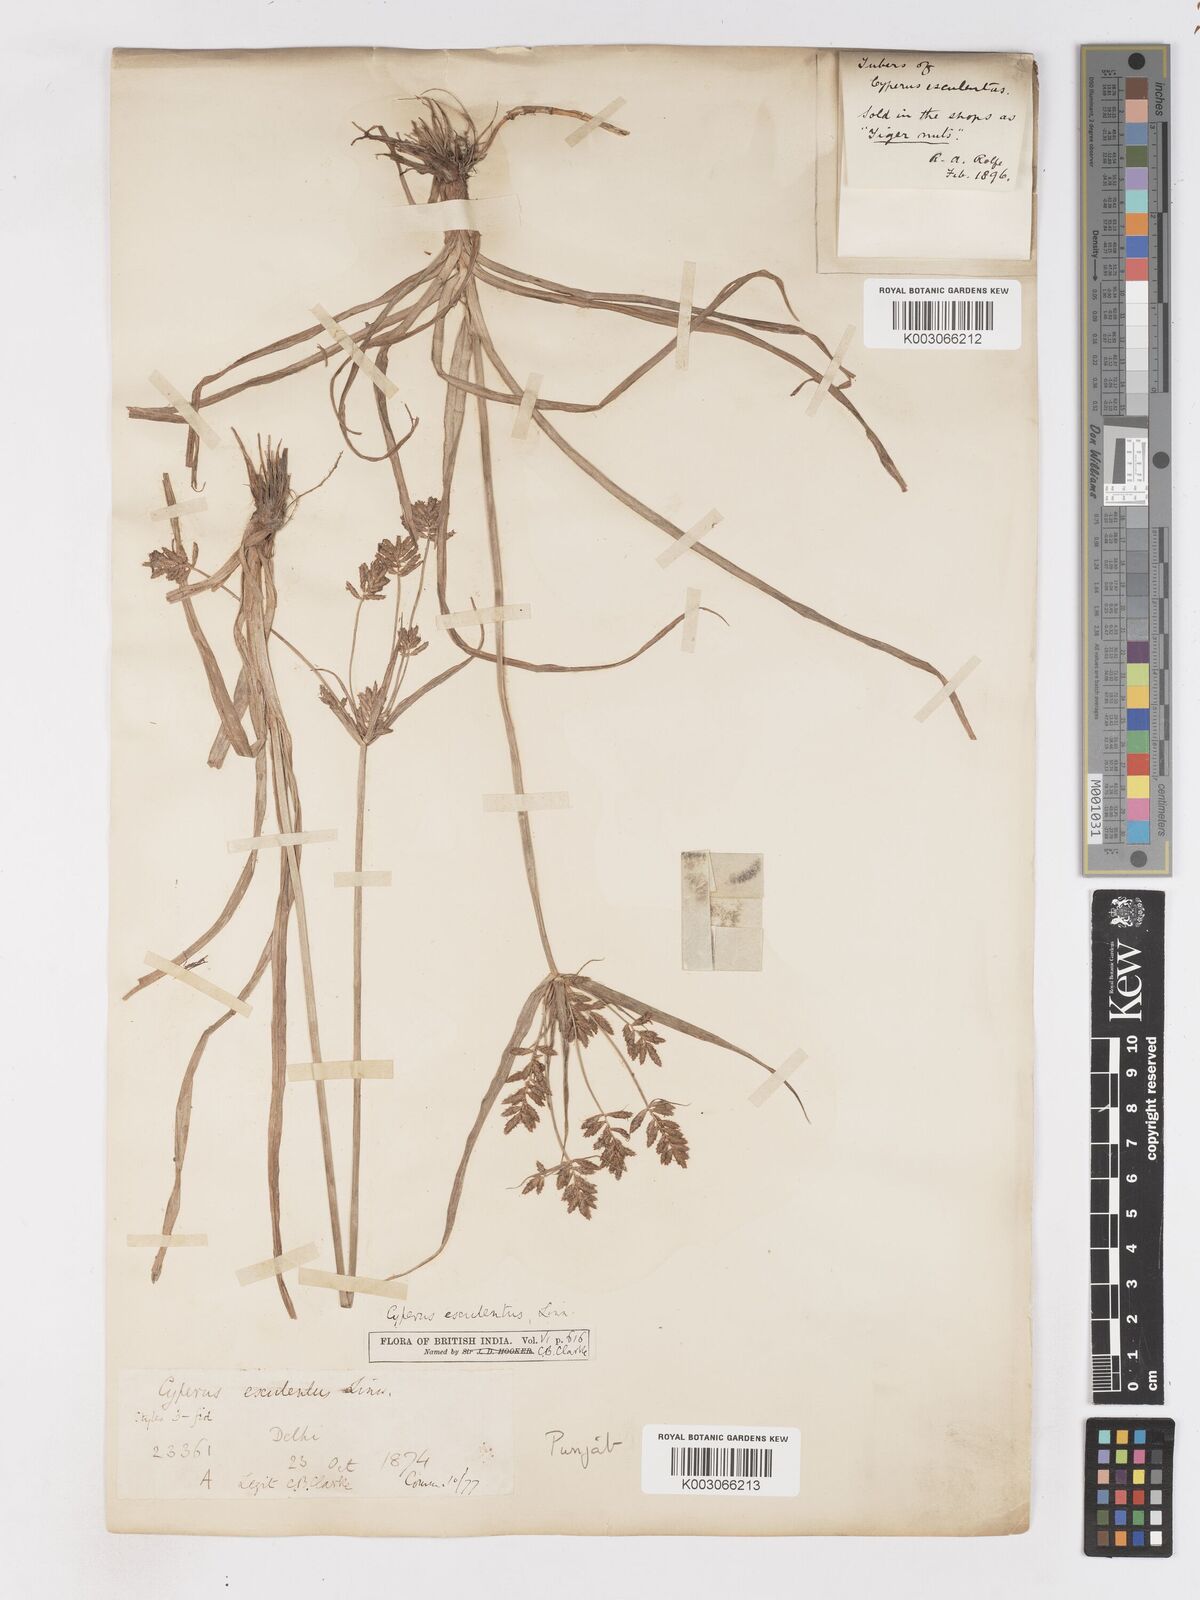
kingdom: Plantae
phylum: Tracheophyta
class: Liliopsida
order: Poales
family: Cyperaceae
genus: Cyperus
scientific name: Cyperus esculentus
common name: Yellow nutsedge
